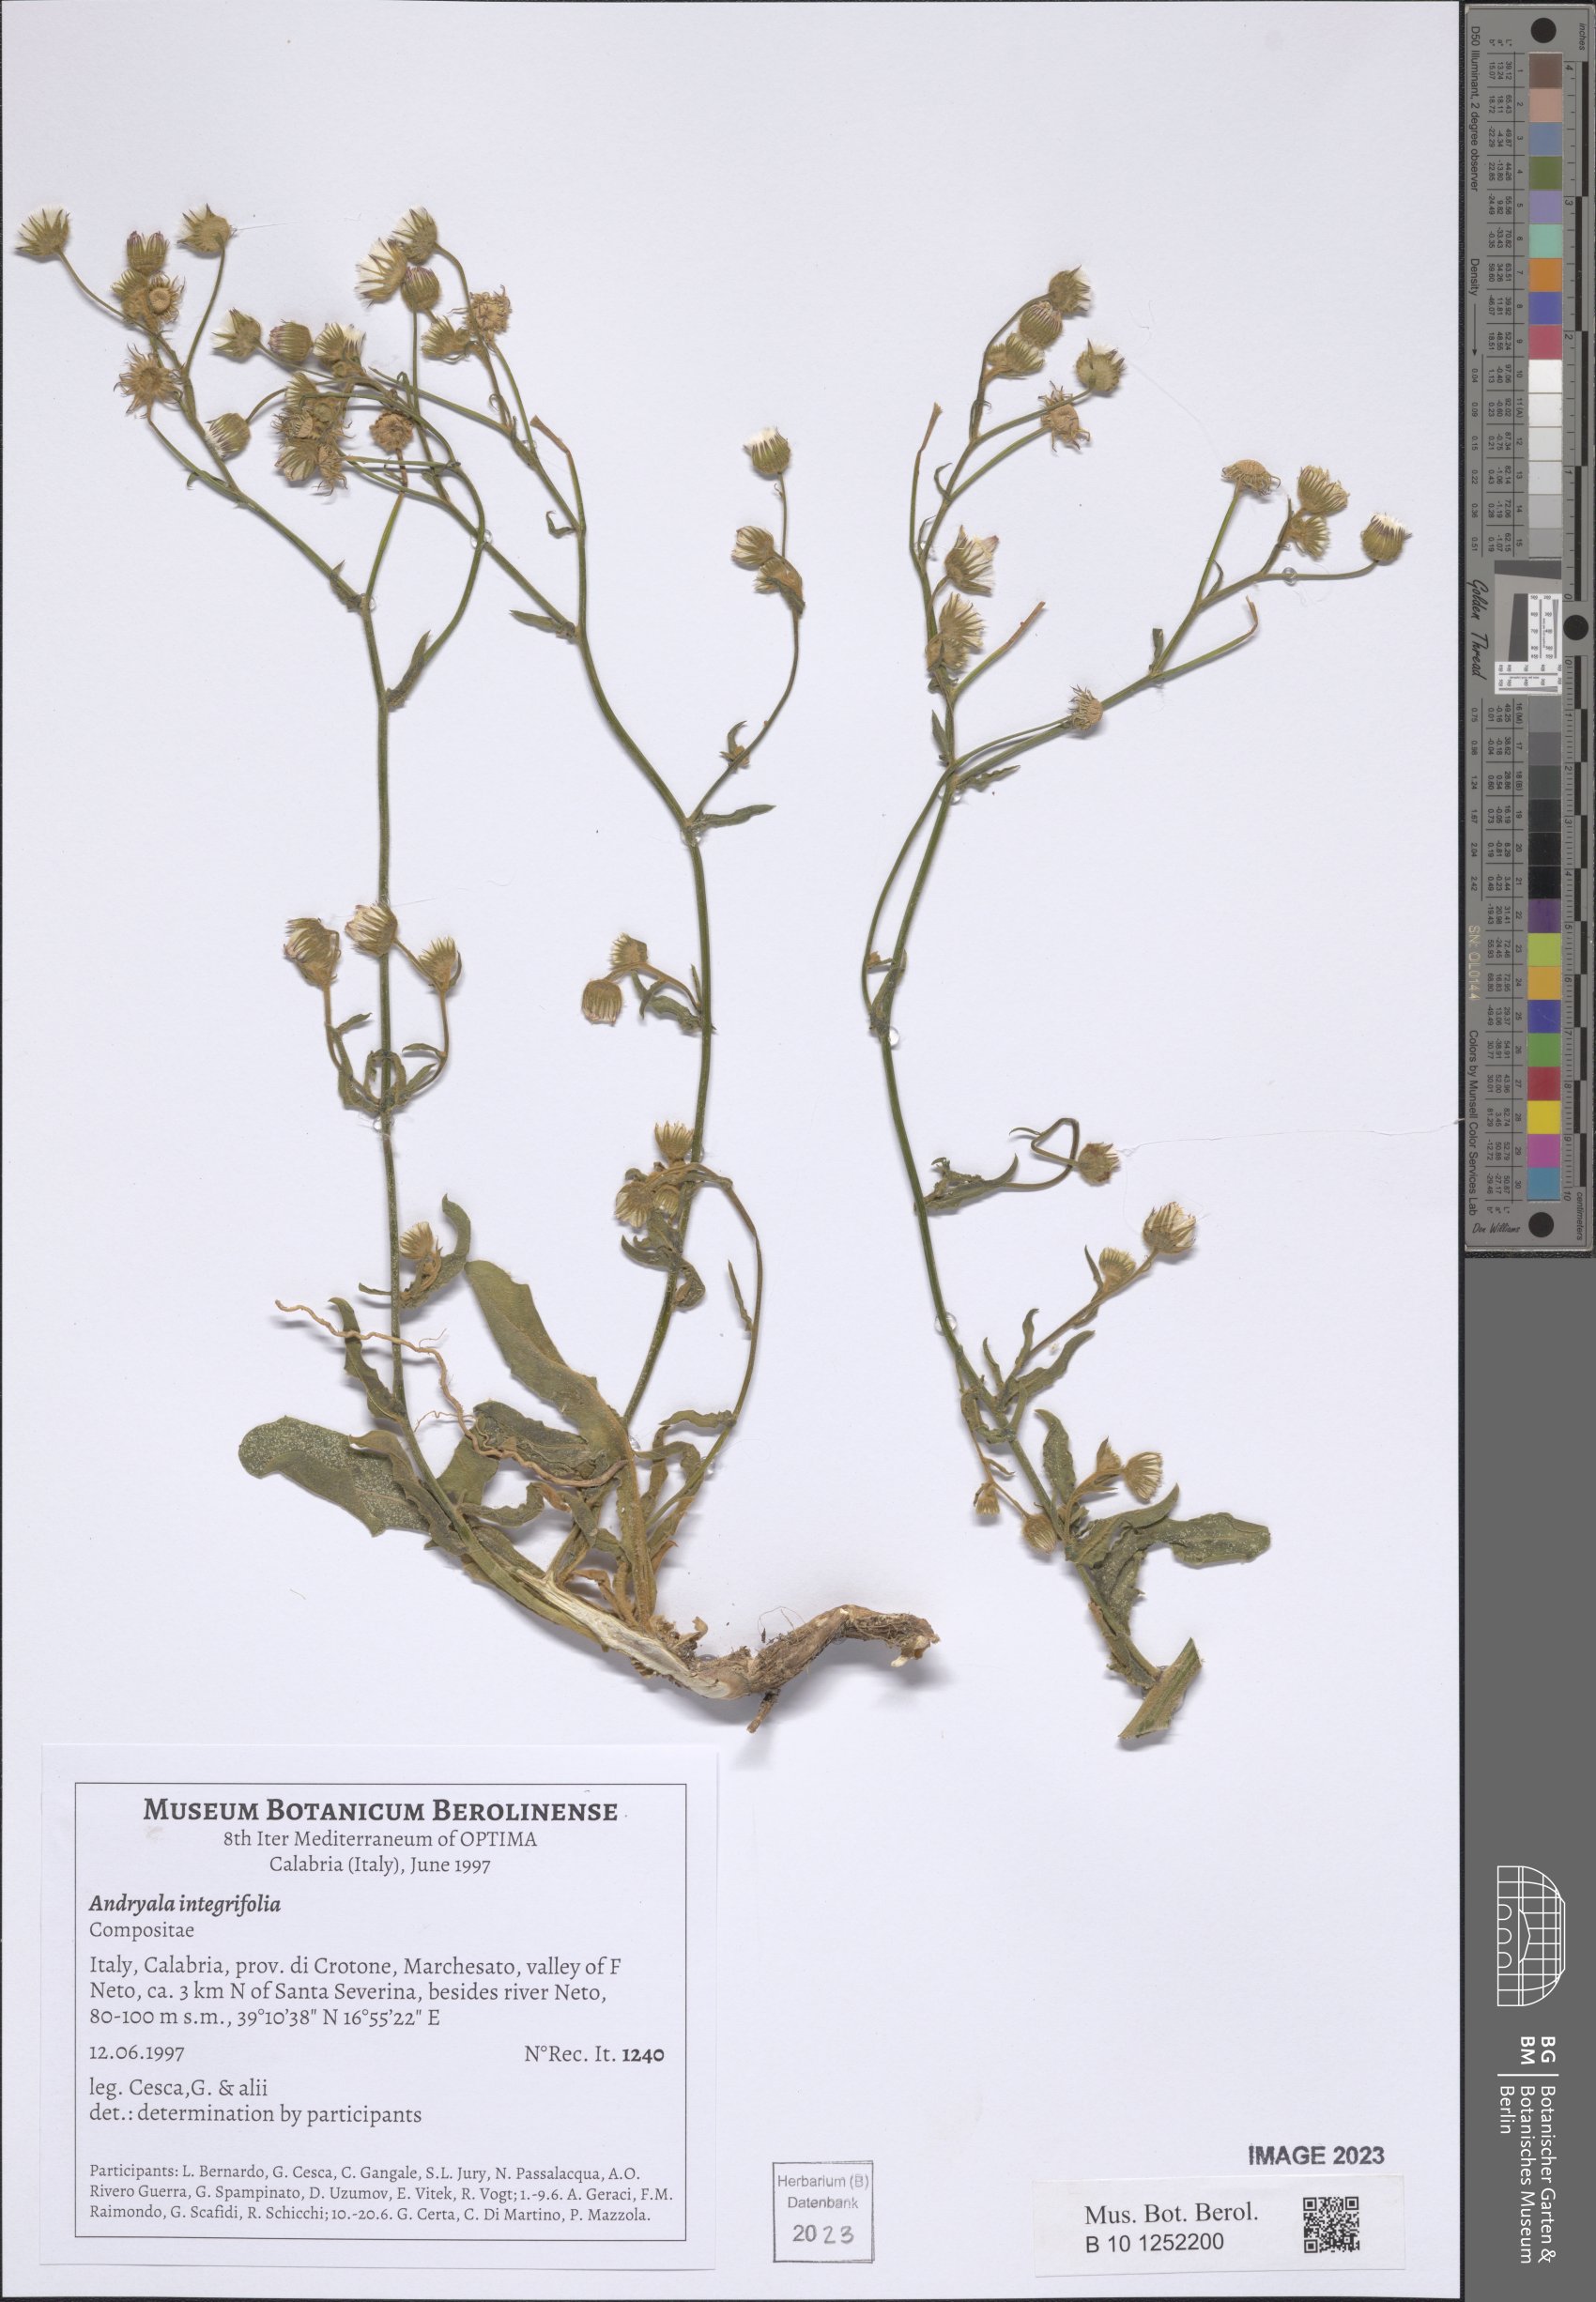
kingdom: Plantae
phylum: Tracheophyta
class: Magnoliopsida
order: Asterales
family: Asteraceae
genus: Andryala
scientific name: Andryala integrifolia
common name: Common andryala
